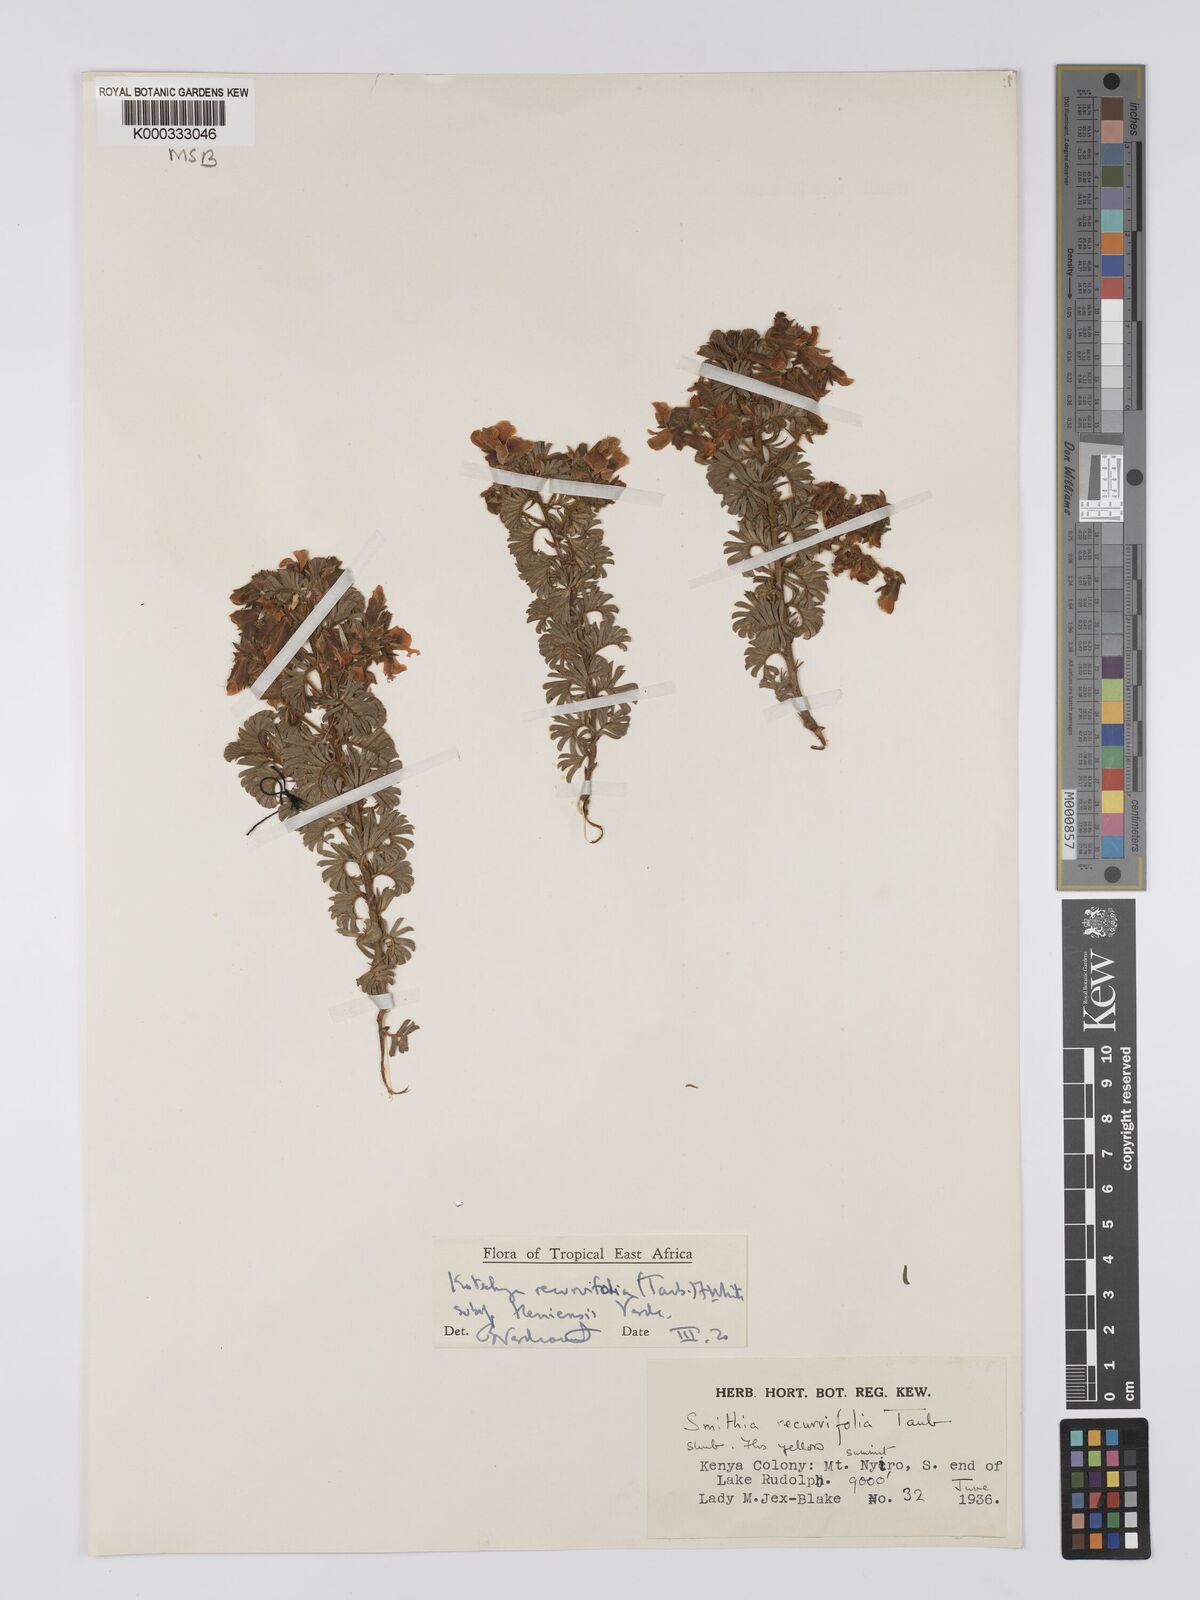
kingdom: Plantae
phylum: Tracheophyta
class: Magnoliopsida
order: Fabales
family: Fabaceae
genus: Kotschya
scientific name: Kotschya recurvifolia
